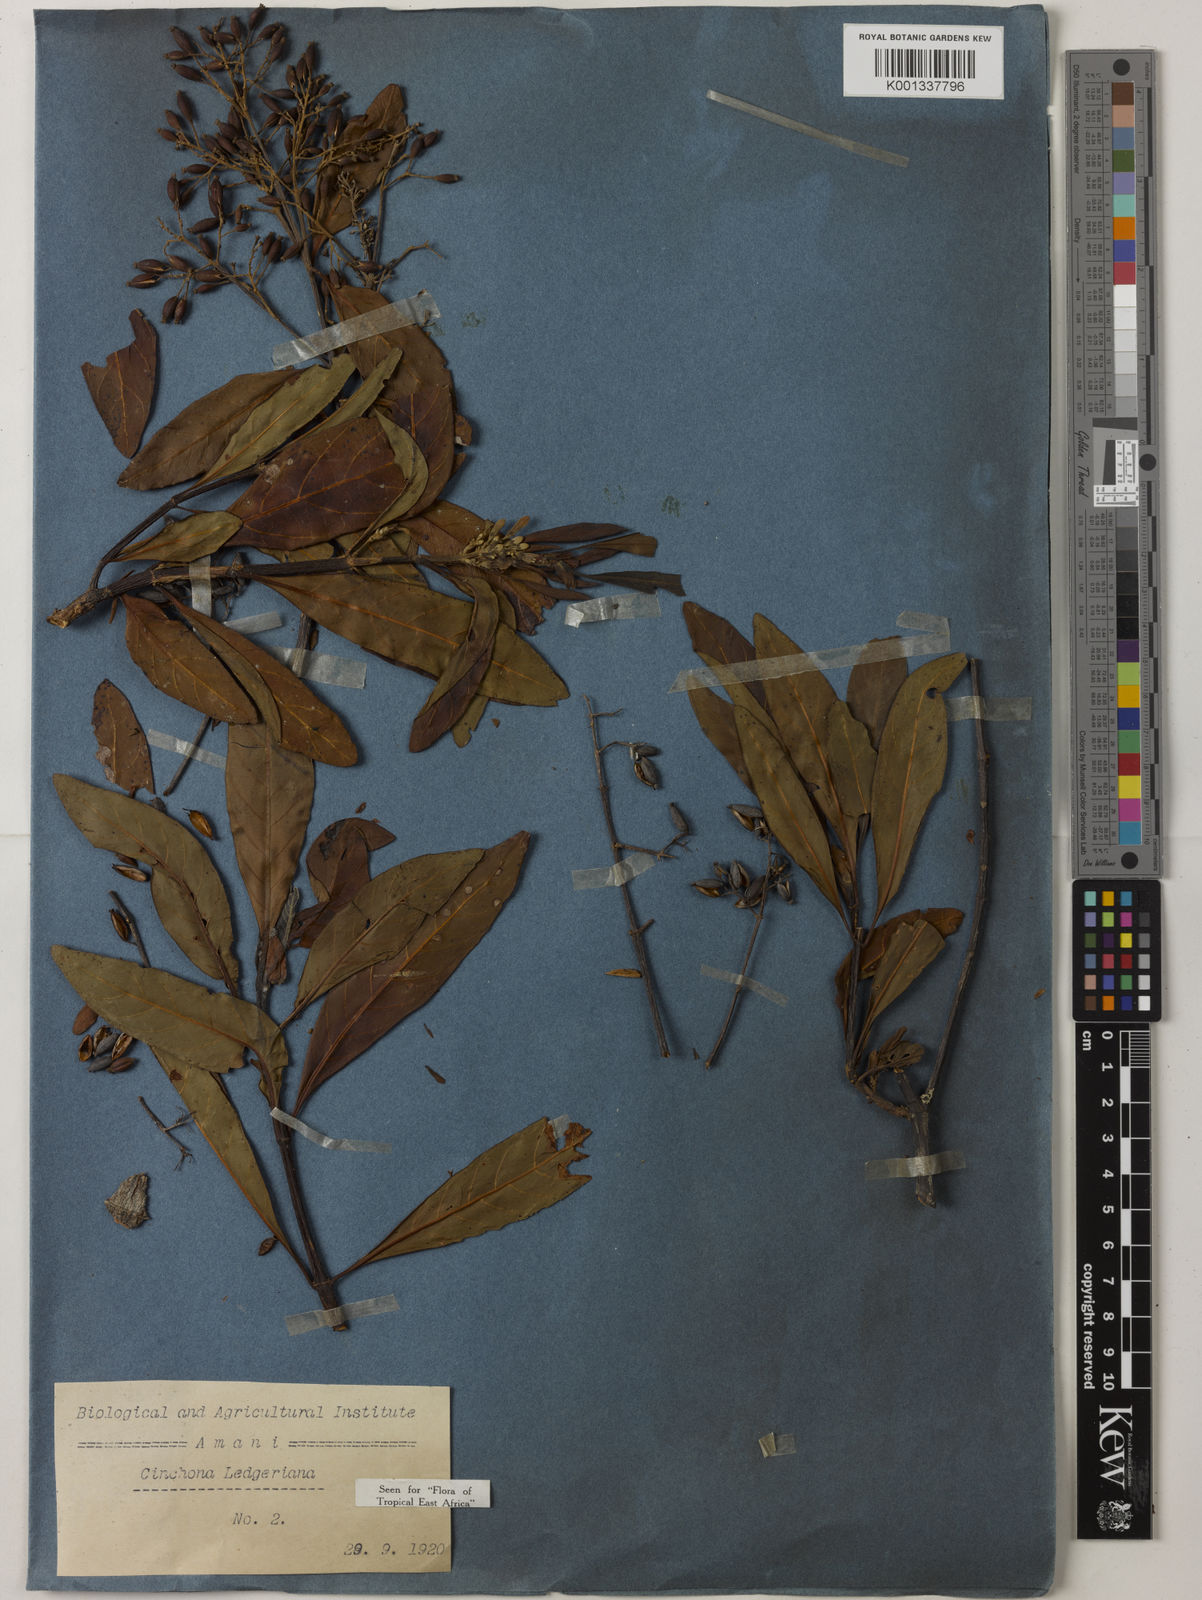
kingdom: Plantae
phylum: Tracheophyta
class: Magnoliopsida
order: Gentianales
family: Rubiaceae
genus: Cinchona
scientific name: Cinchona calisaya
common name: Ledgerbark
